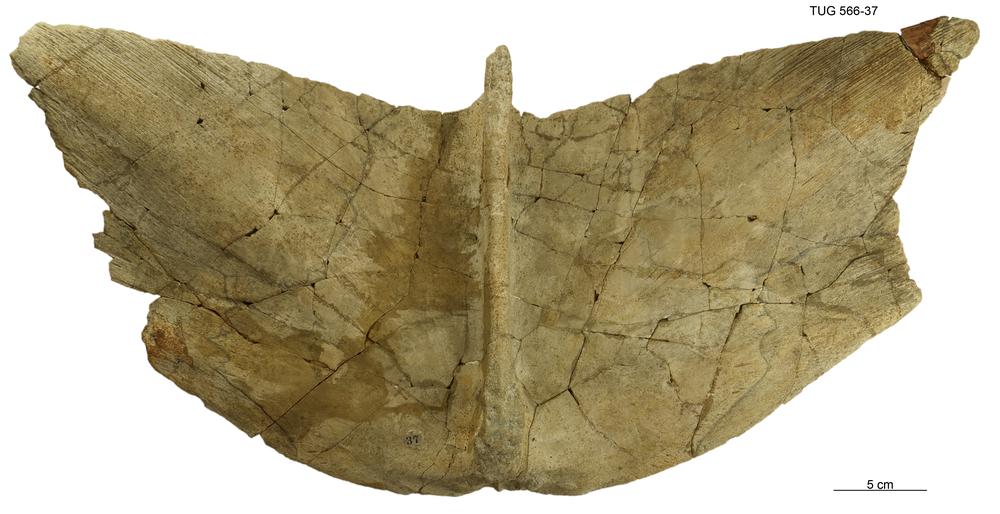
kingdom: Animalia
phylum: Chordata
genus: Homosteus
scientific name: Homosteus latus
